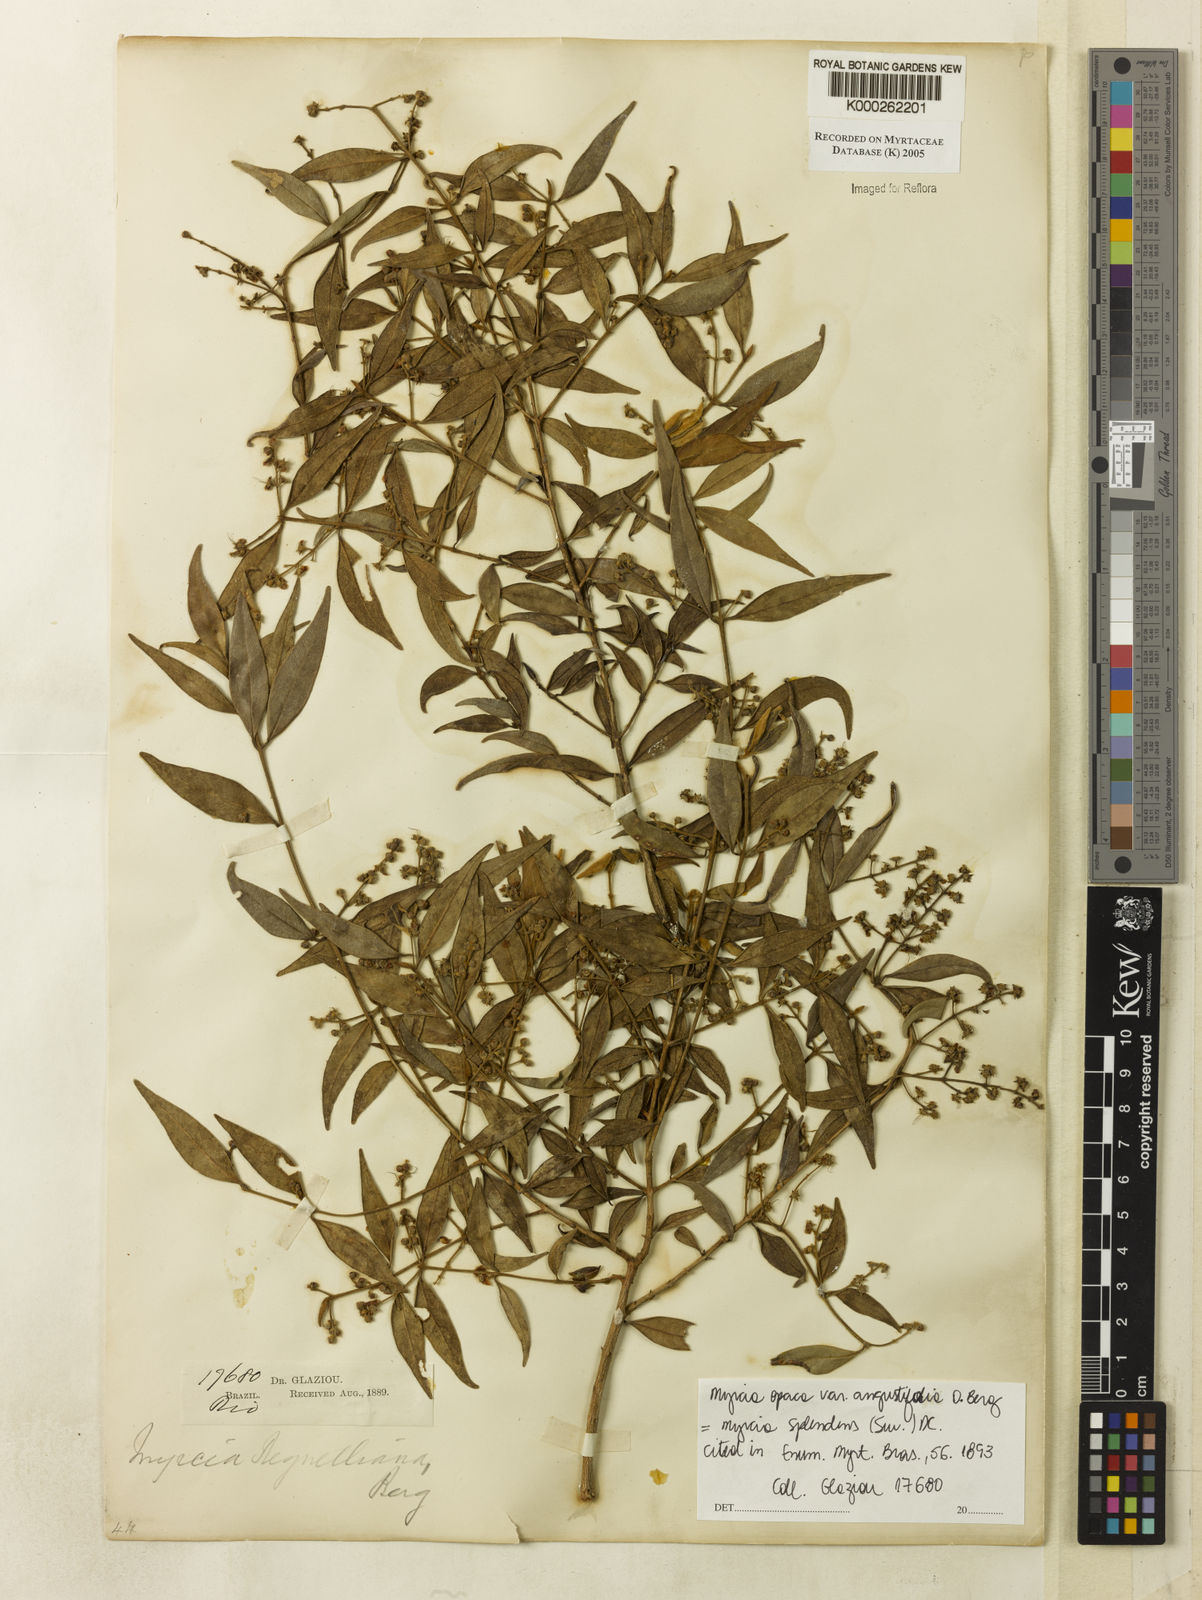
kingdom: Plantae
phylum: Tracheophyta
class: Magnoliopsida
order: Myrtales
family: Myrtaceae
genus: Myrcia
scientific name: Myrcia regnelliana
